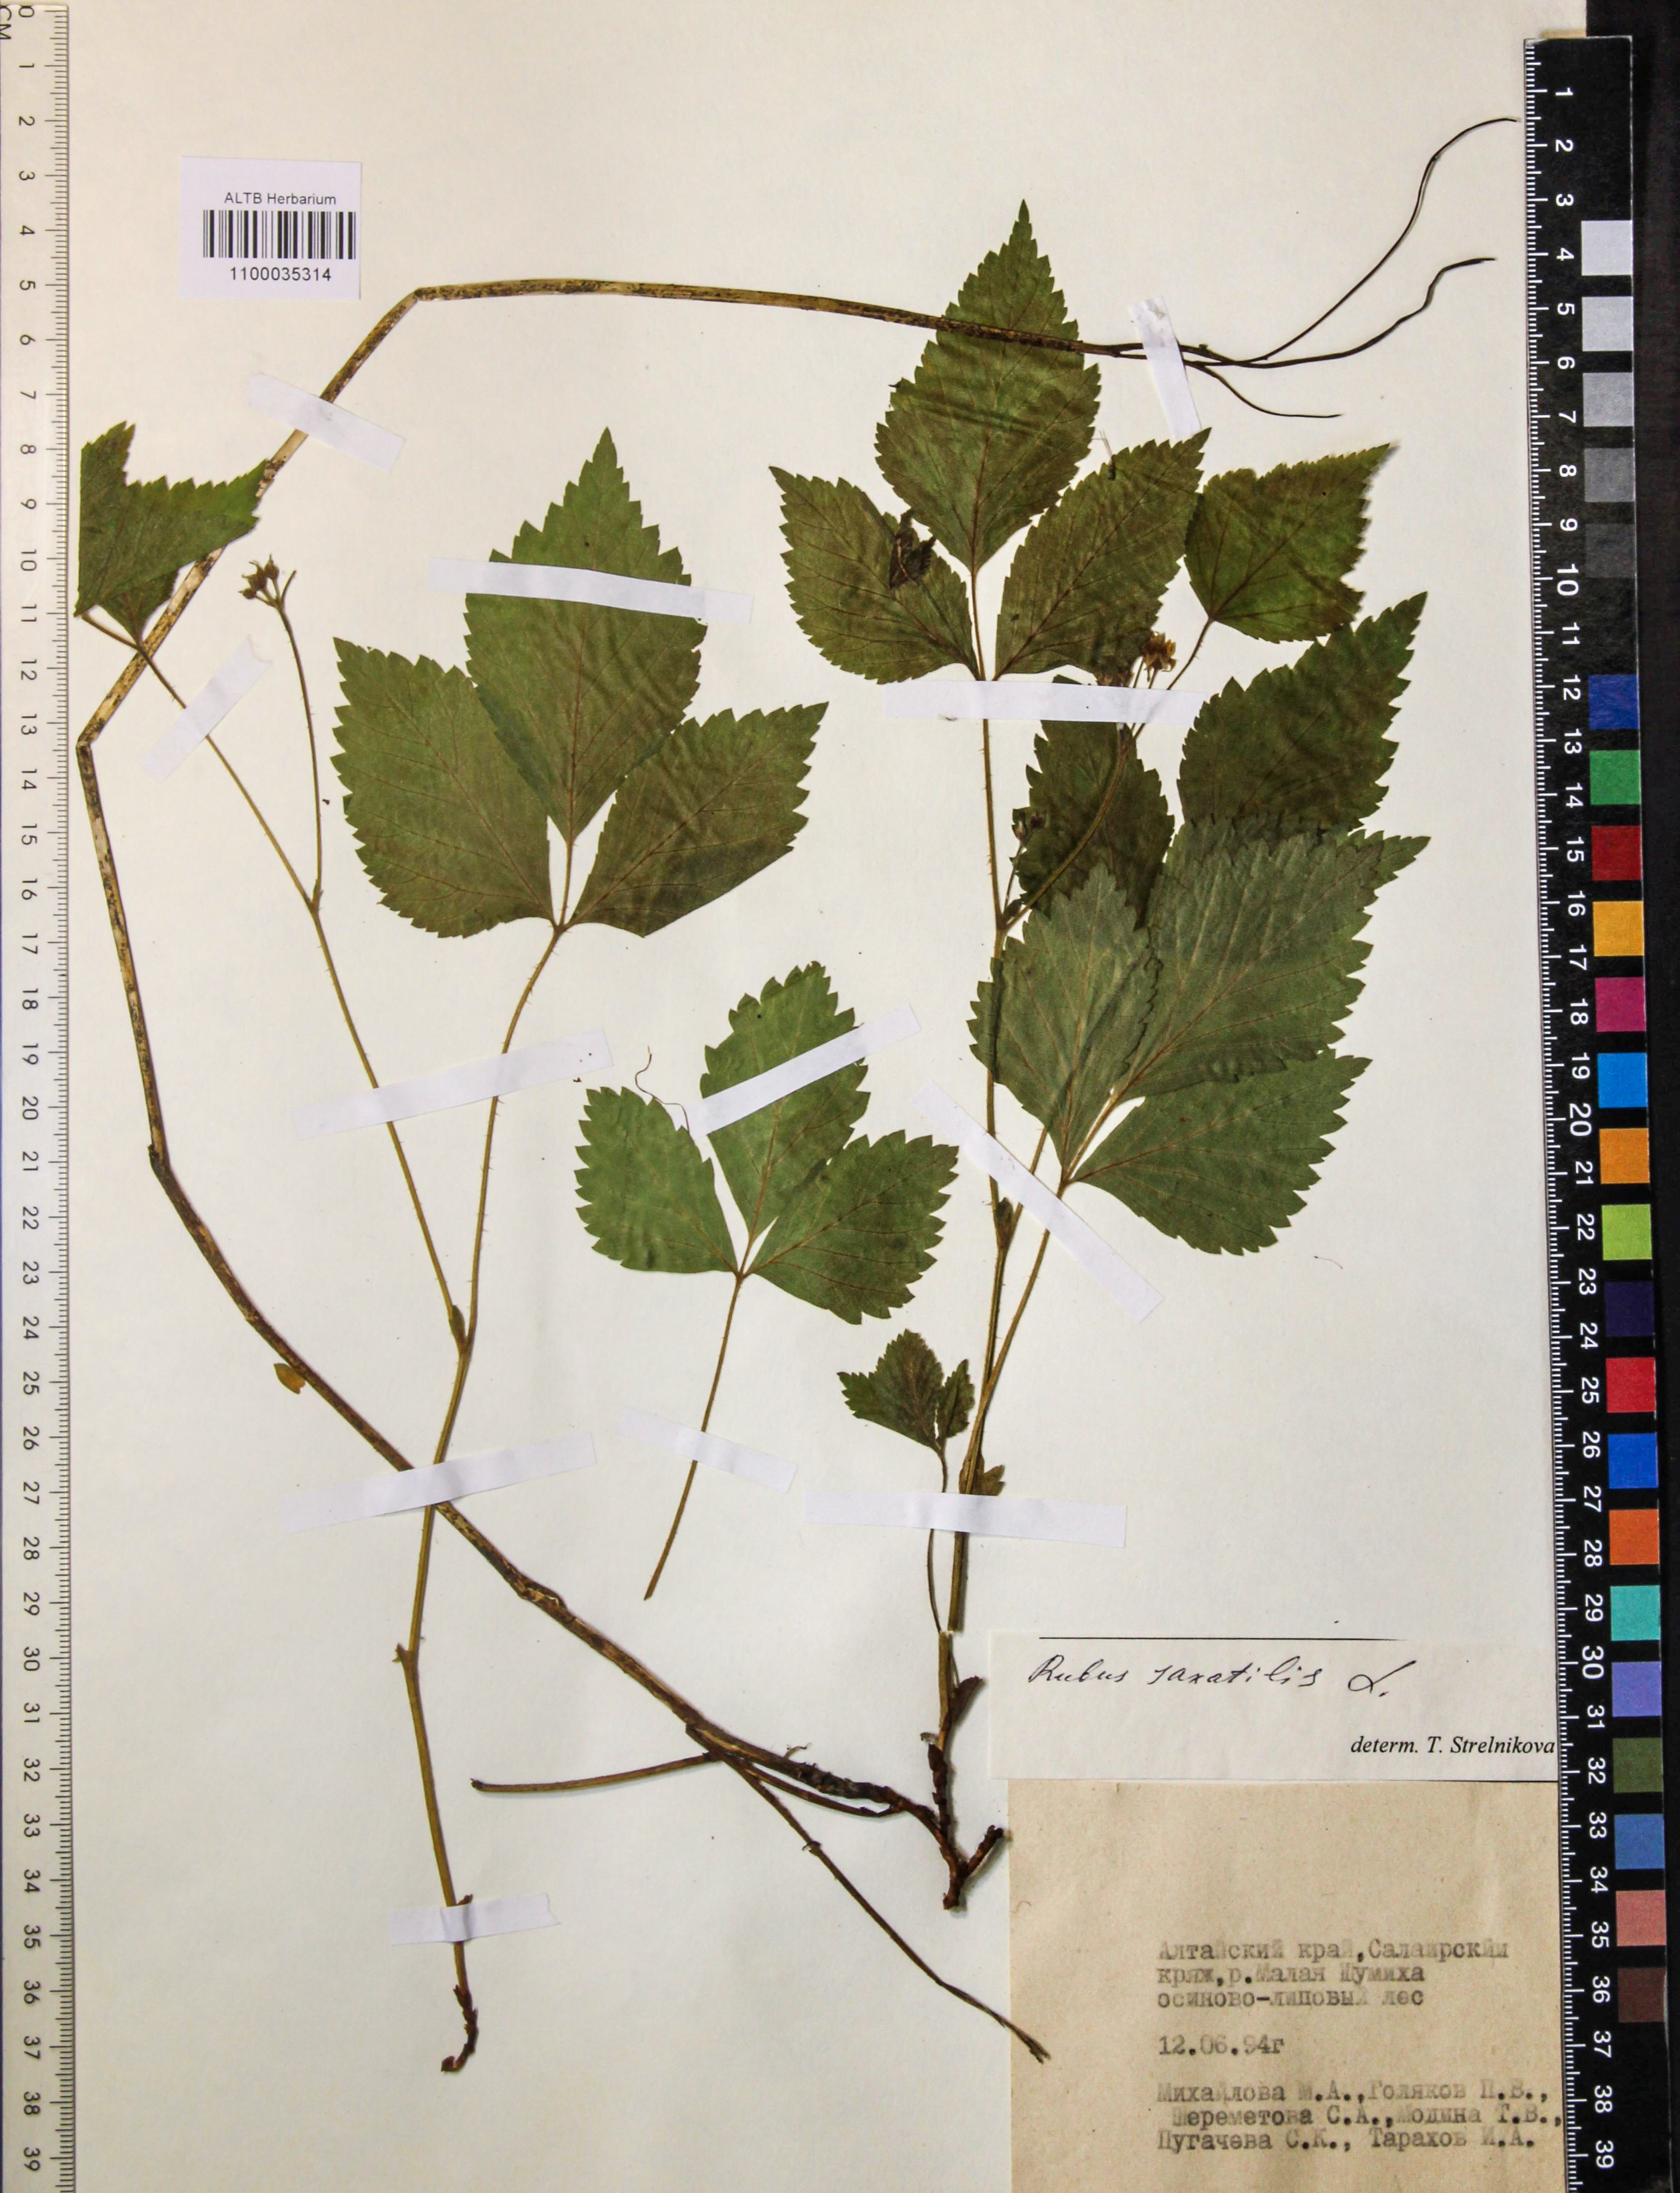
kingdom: Plantae
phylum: Tracheophyta
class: Magnoliopsida
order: Rosales
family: Rosaceae
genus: Rubus
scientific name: Rubus saxatilis
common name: Stone bramble
